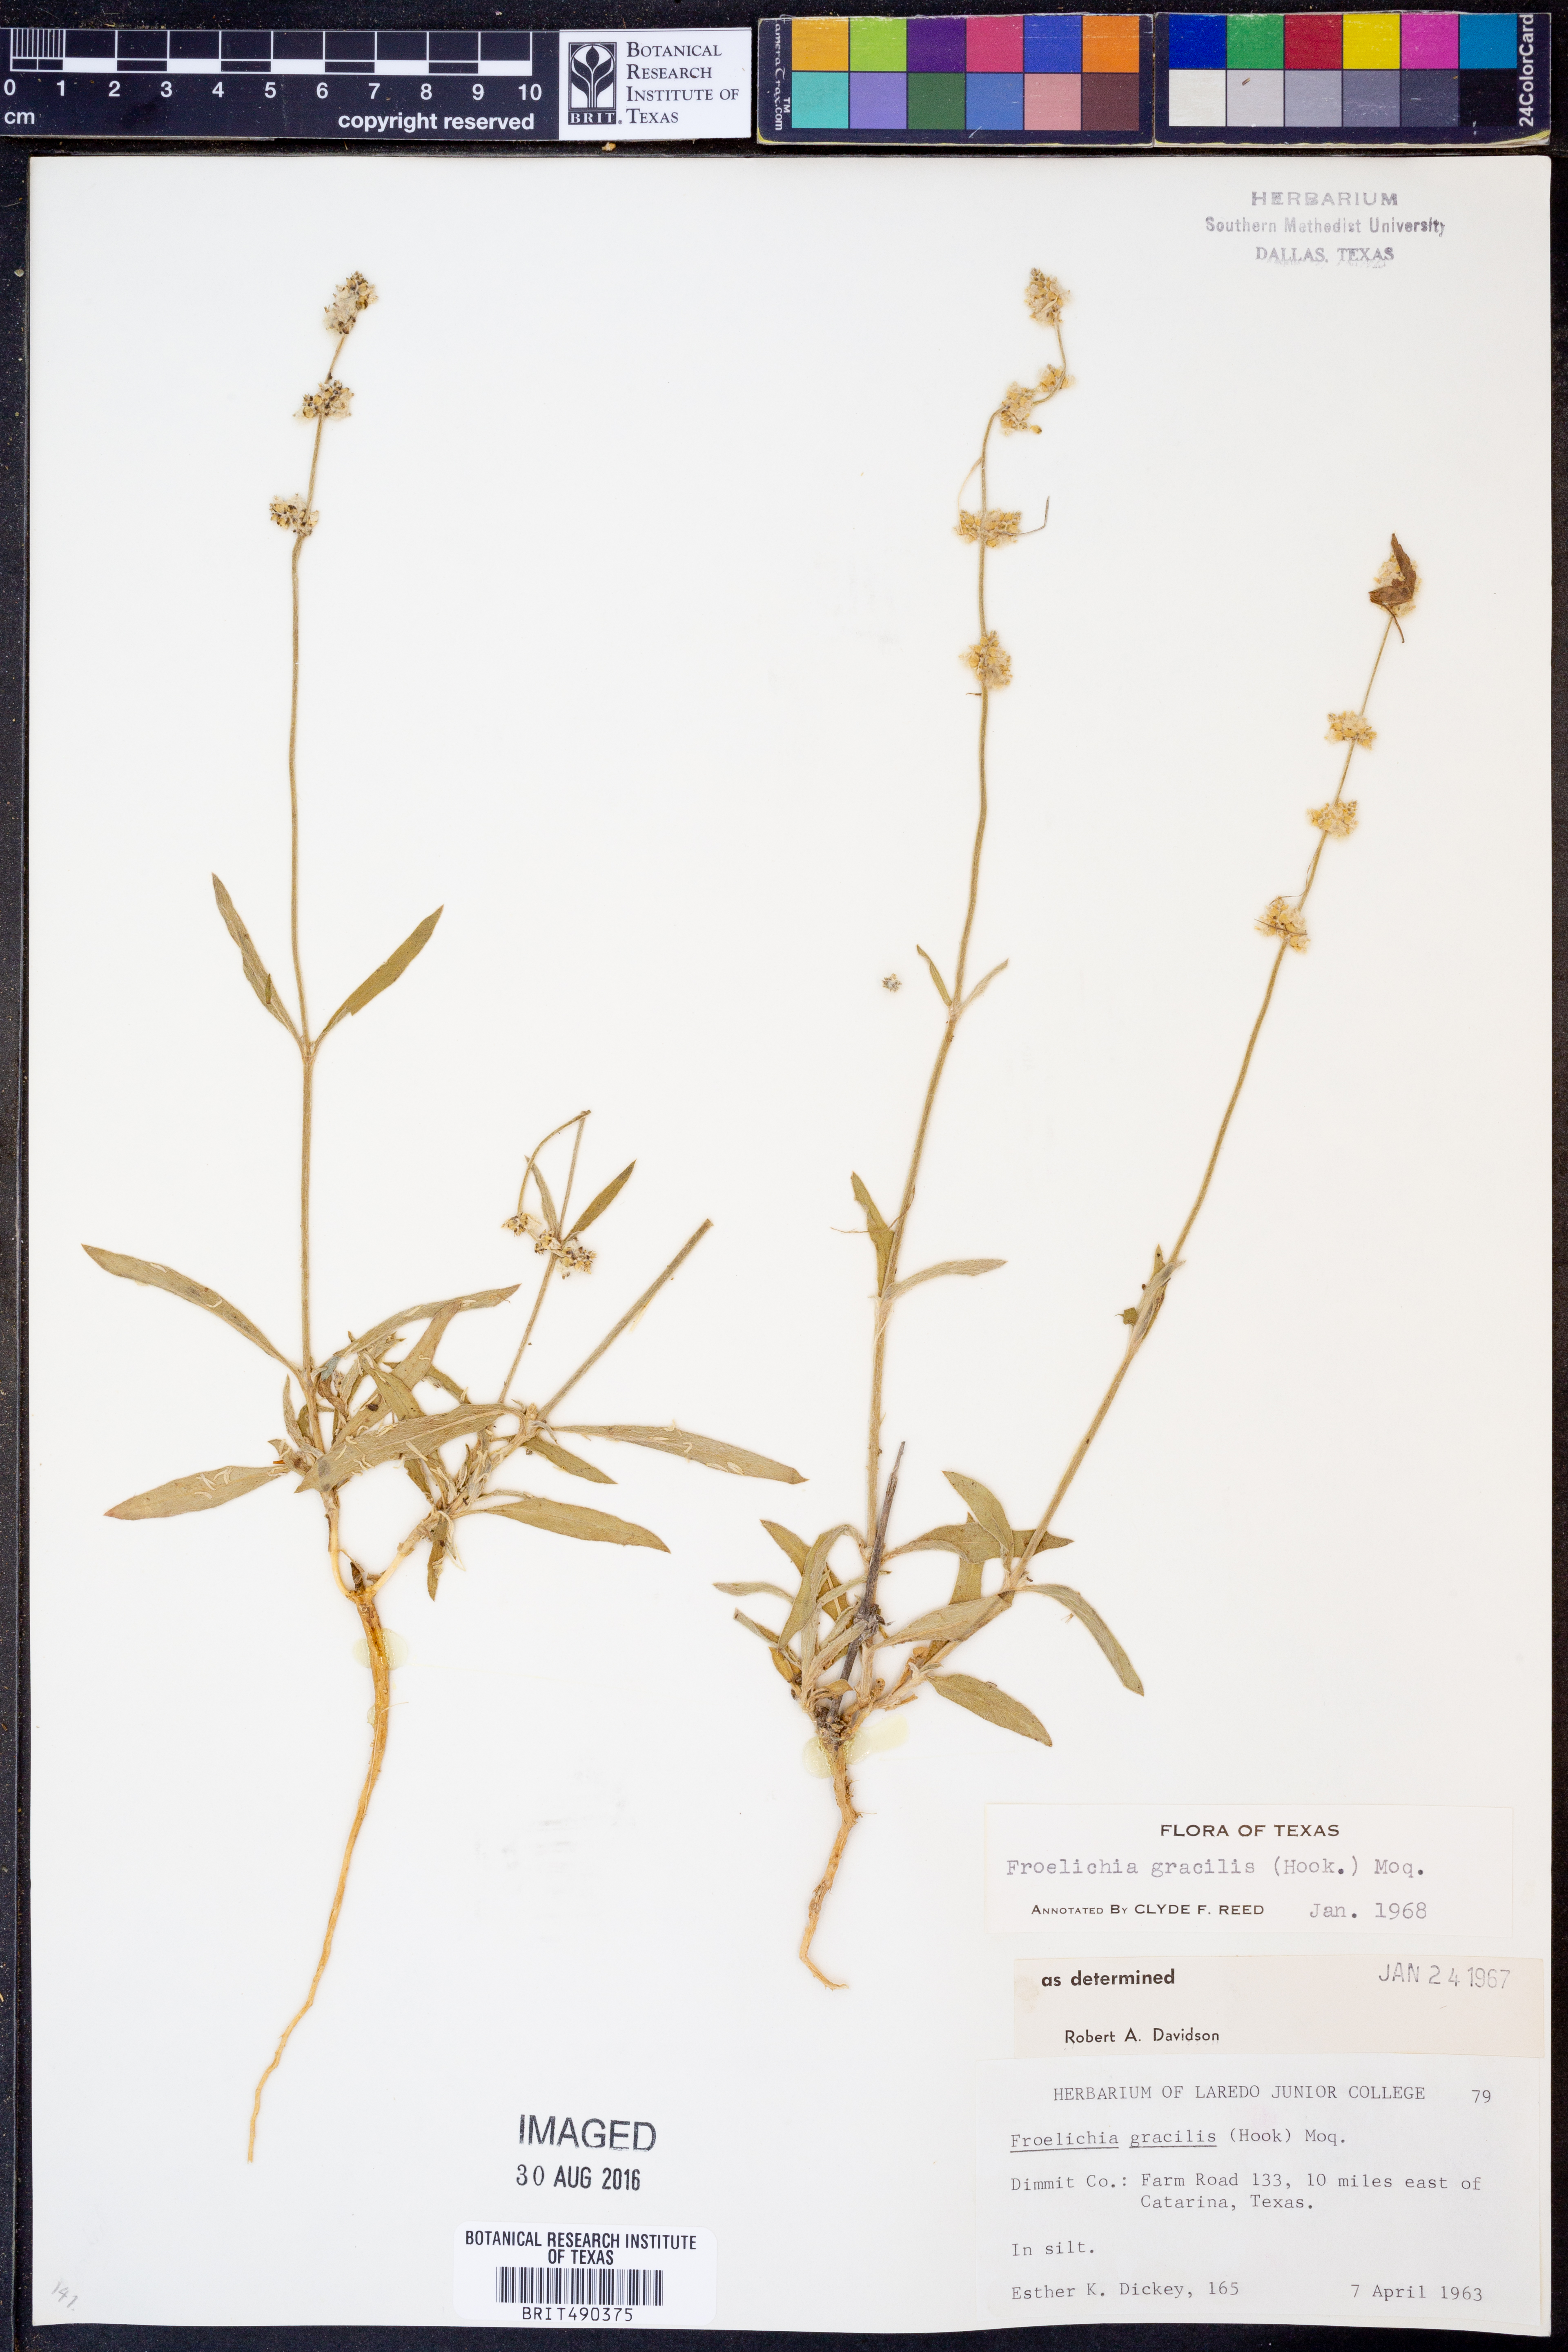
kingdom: Plantae
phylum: Tracheophyta
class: Magnoliopsida
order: Caryophyllales
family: Amaranthaceae
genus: Froelichia
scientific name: Froelichia gracilis
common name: Slender cottonweed
